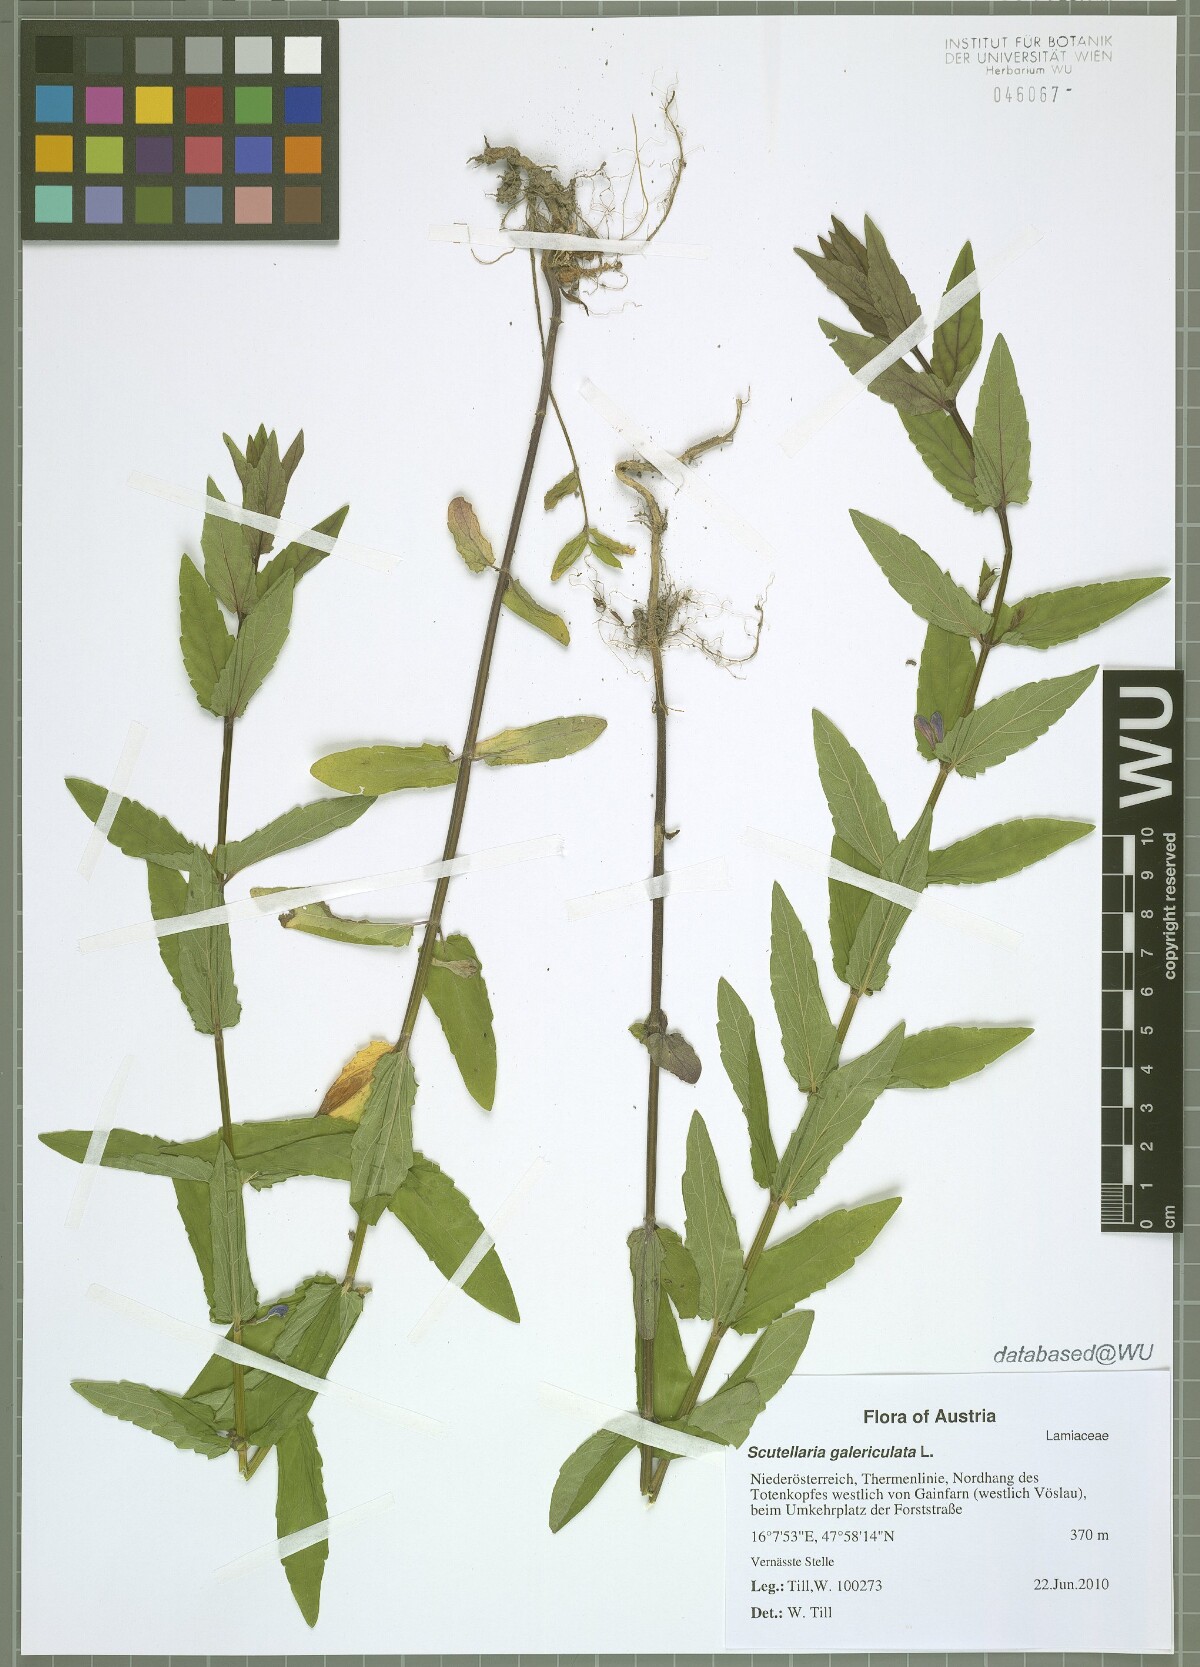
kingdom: Plantae
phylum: Tracheophyta
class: Magnoliopsida
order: Lamiales
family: Lamiaceae
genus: Scutellaria
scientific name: Scutellaria galericulata
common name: Skullcap
